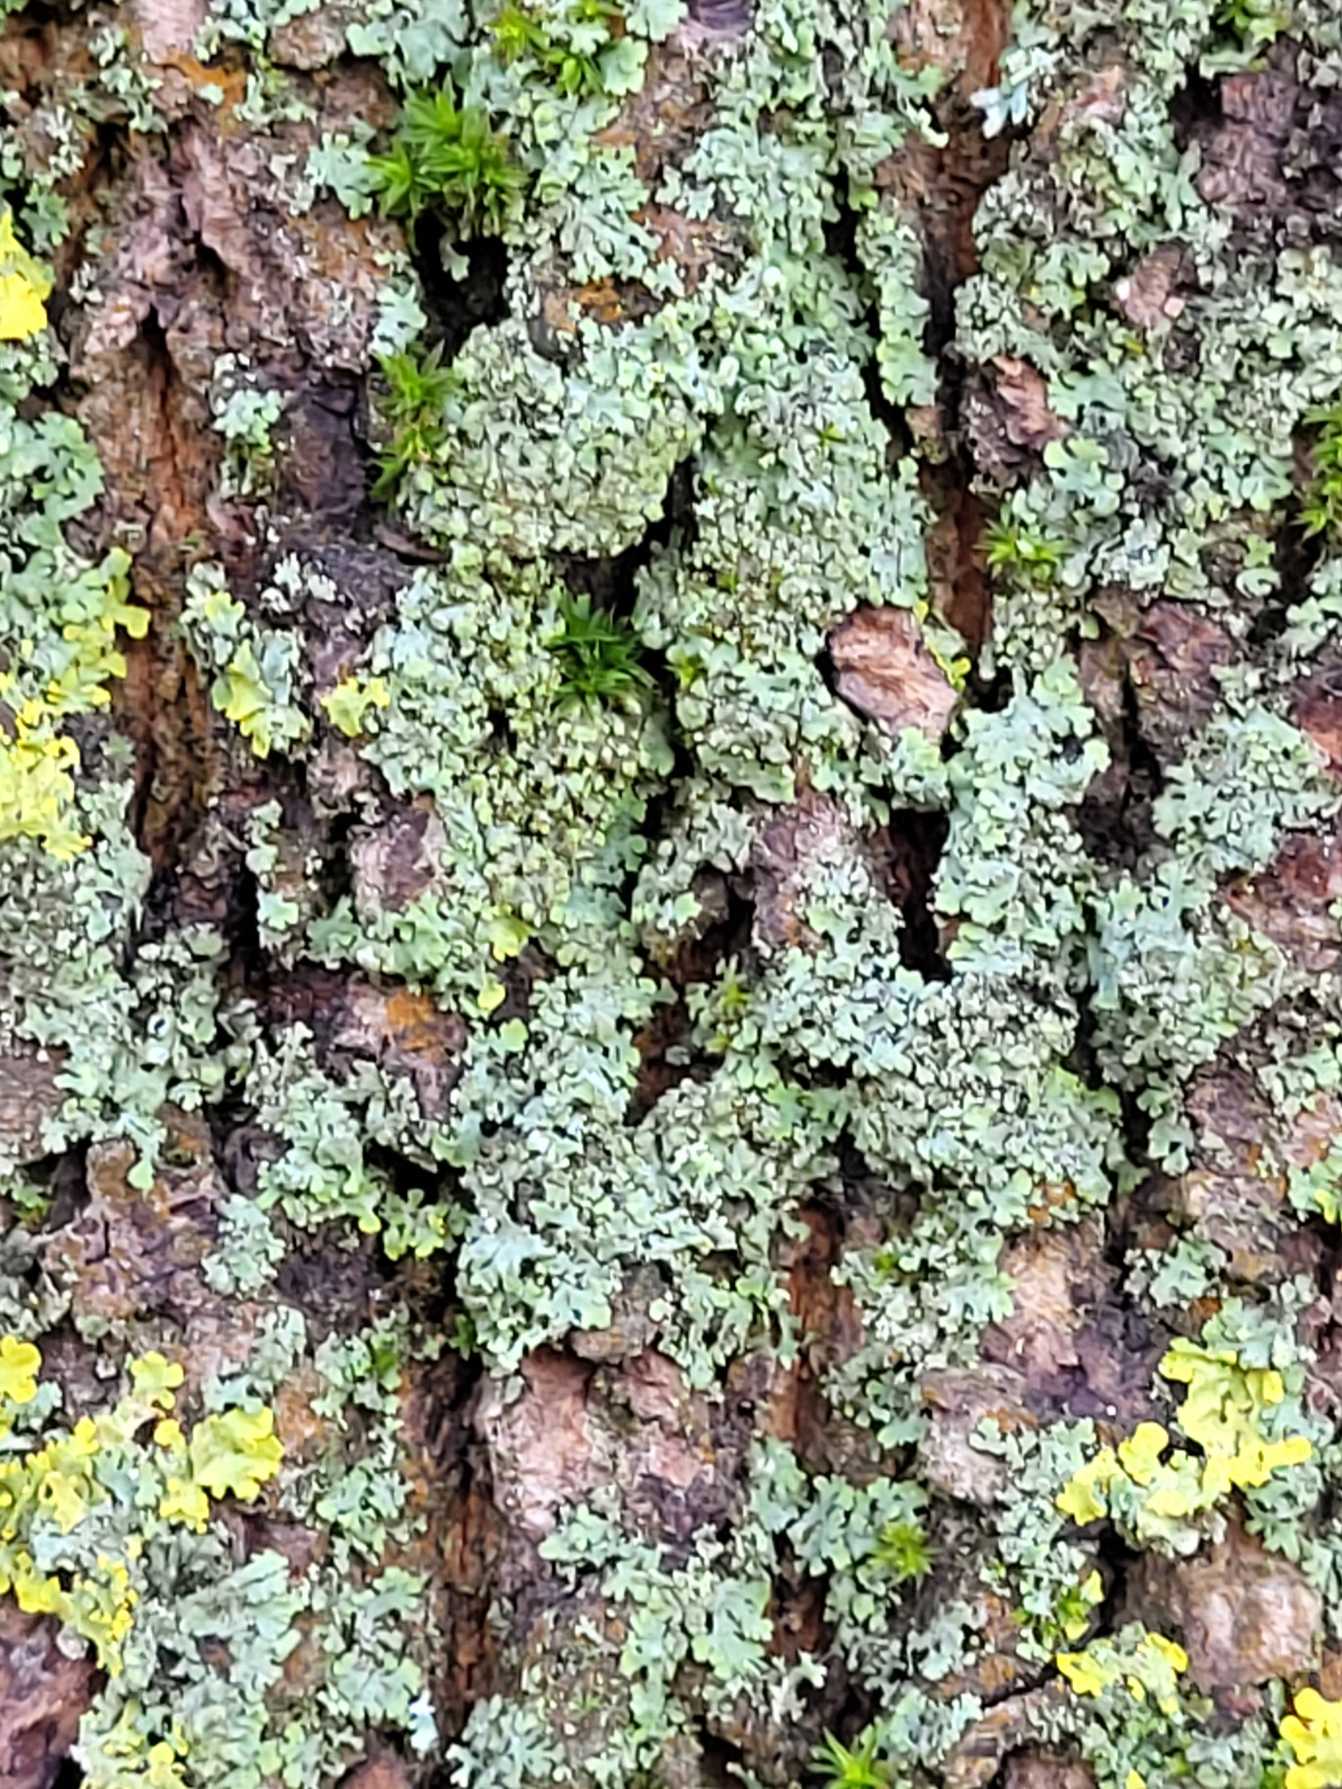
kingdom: Fungi
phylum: Ascomycota
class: Lecanoromycetes
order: Caliciales
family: Physciaceae
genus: Phaeophyscia
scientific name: Phaeophyscia orbicularis
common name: Grågrøn rosetlav
